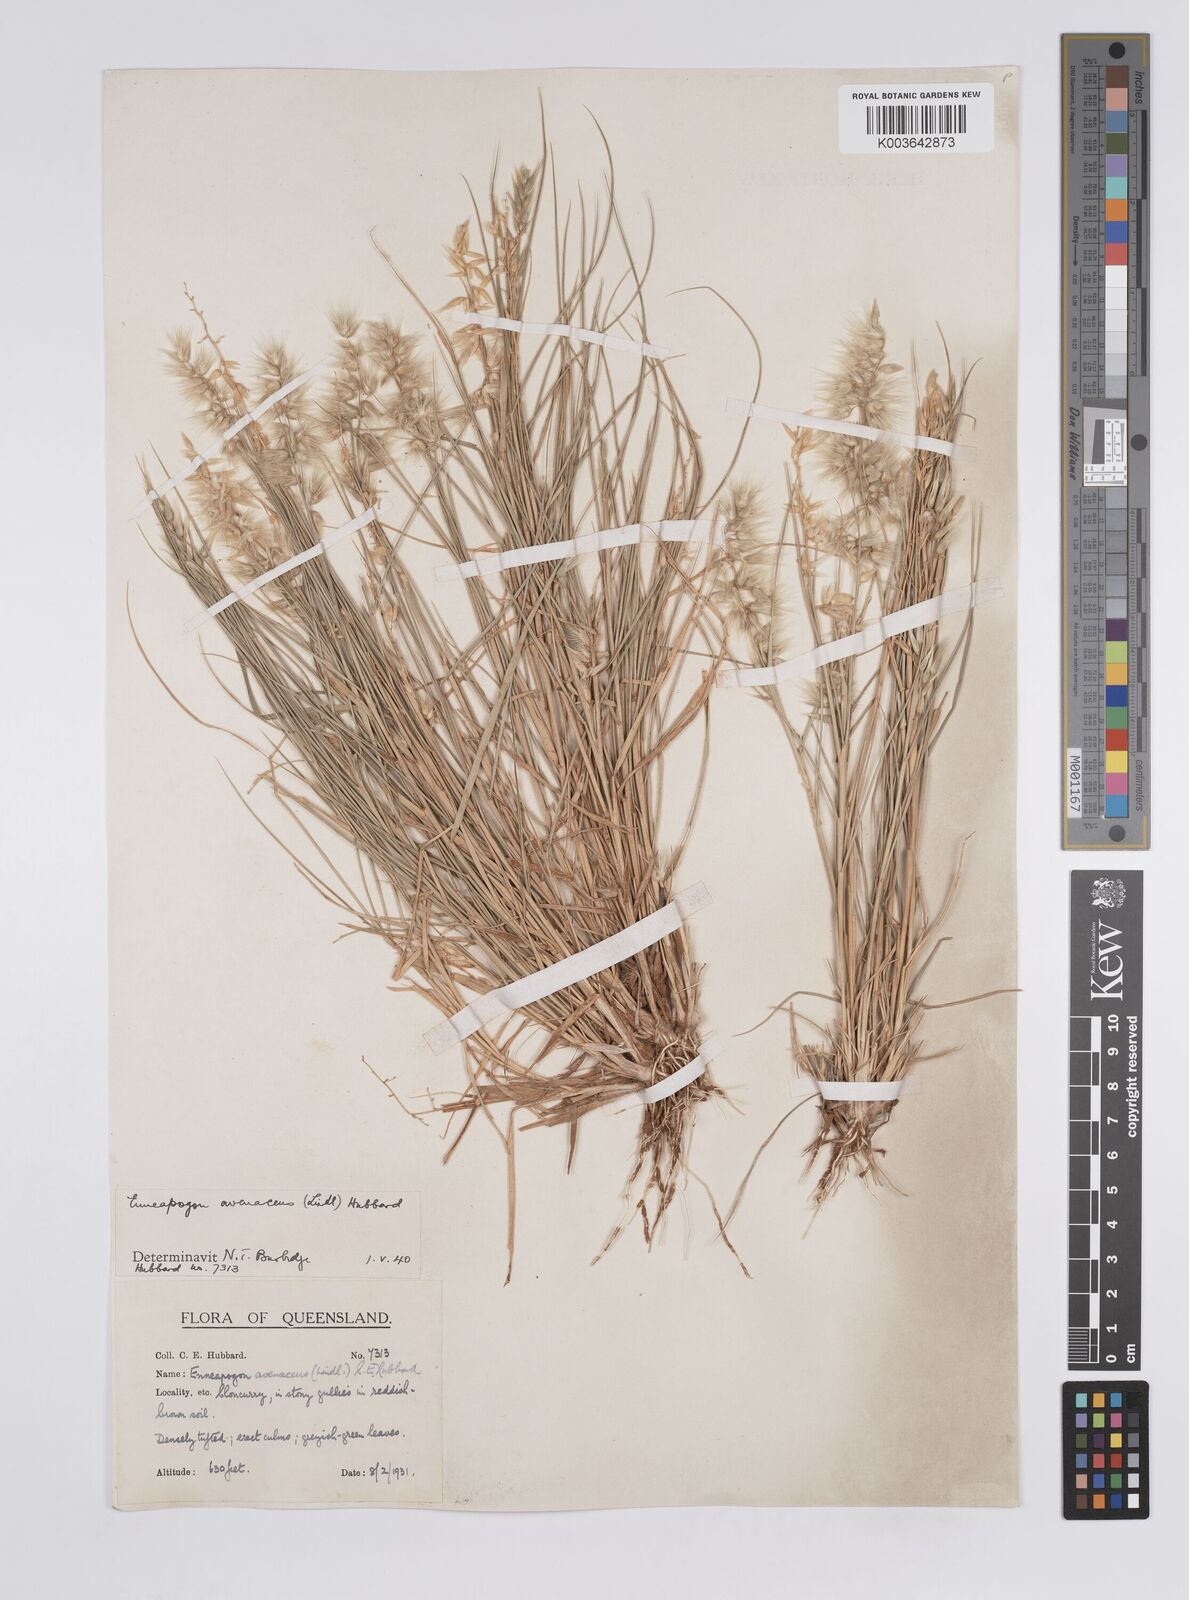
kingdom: Plantae
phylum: Tracheophyta
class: Liliopsida
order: Poales
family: Poaceae
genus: Enneapogon
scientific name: Enneapogon avenaceus
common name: Hairy oat grass
